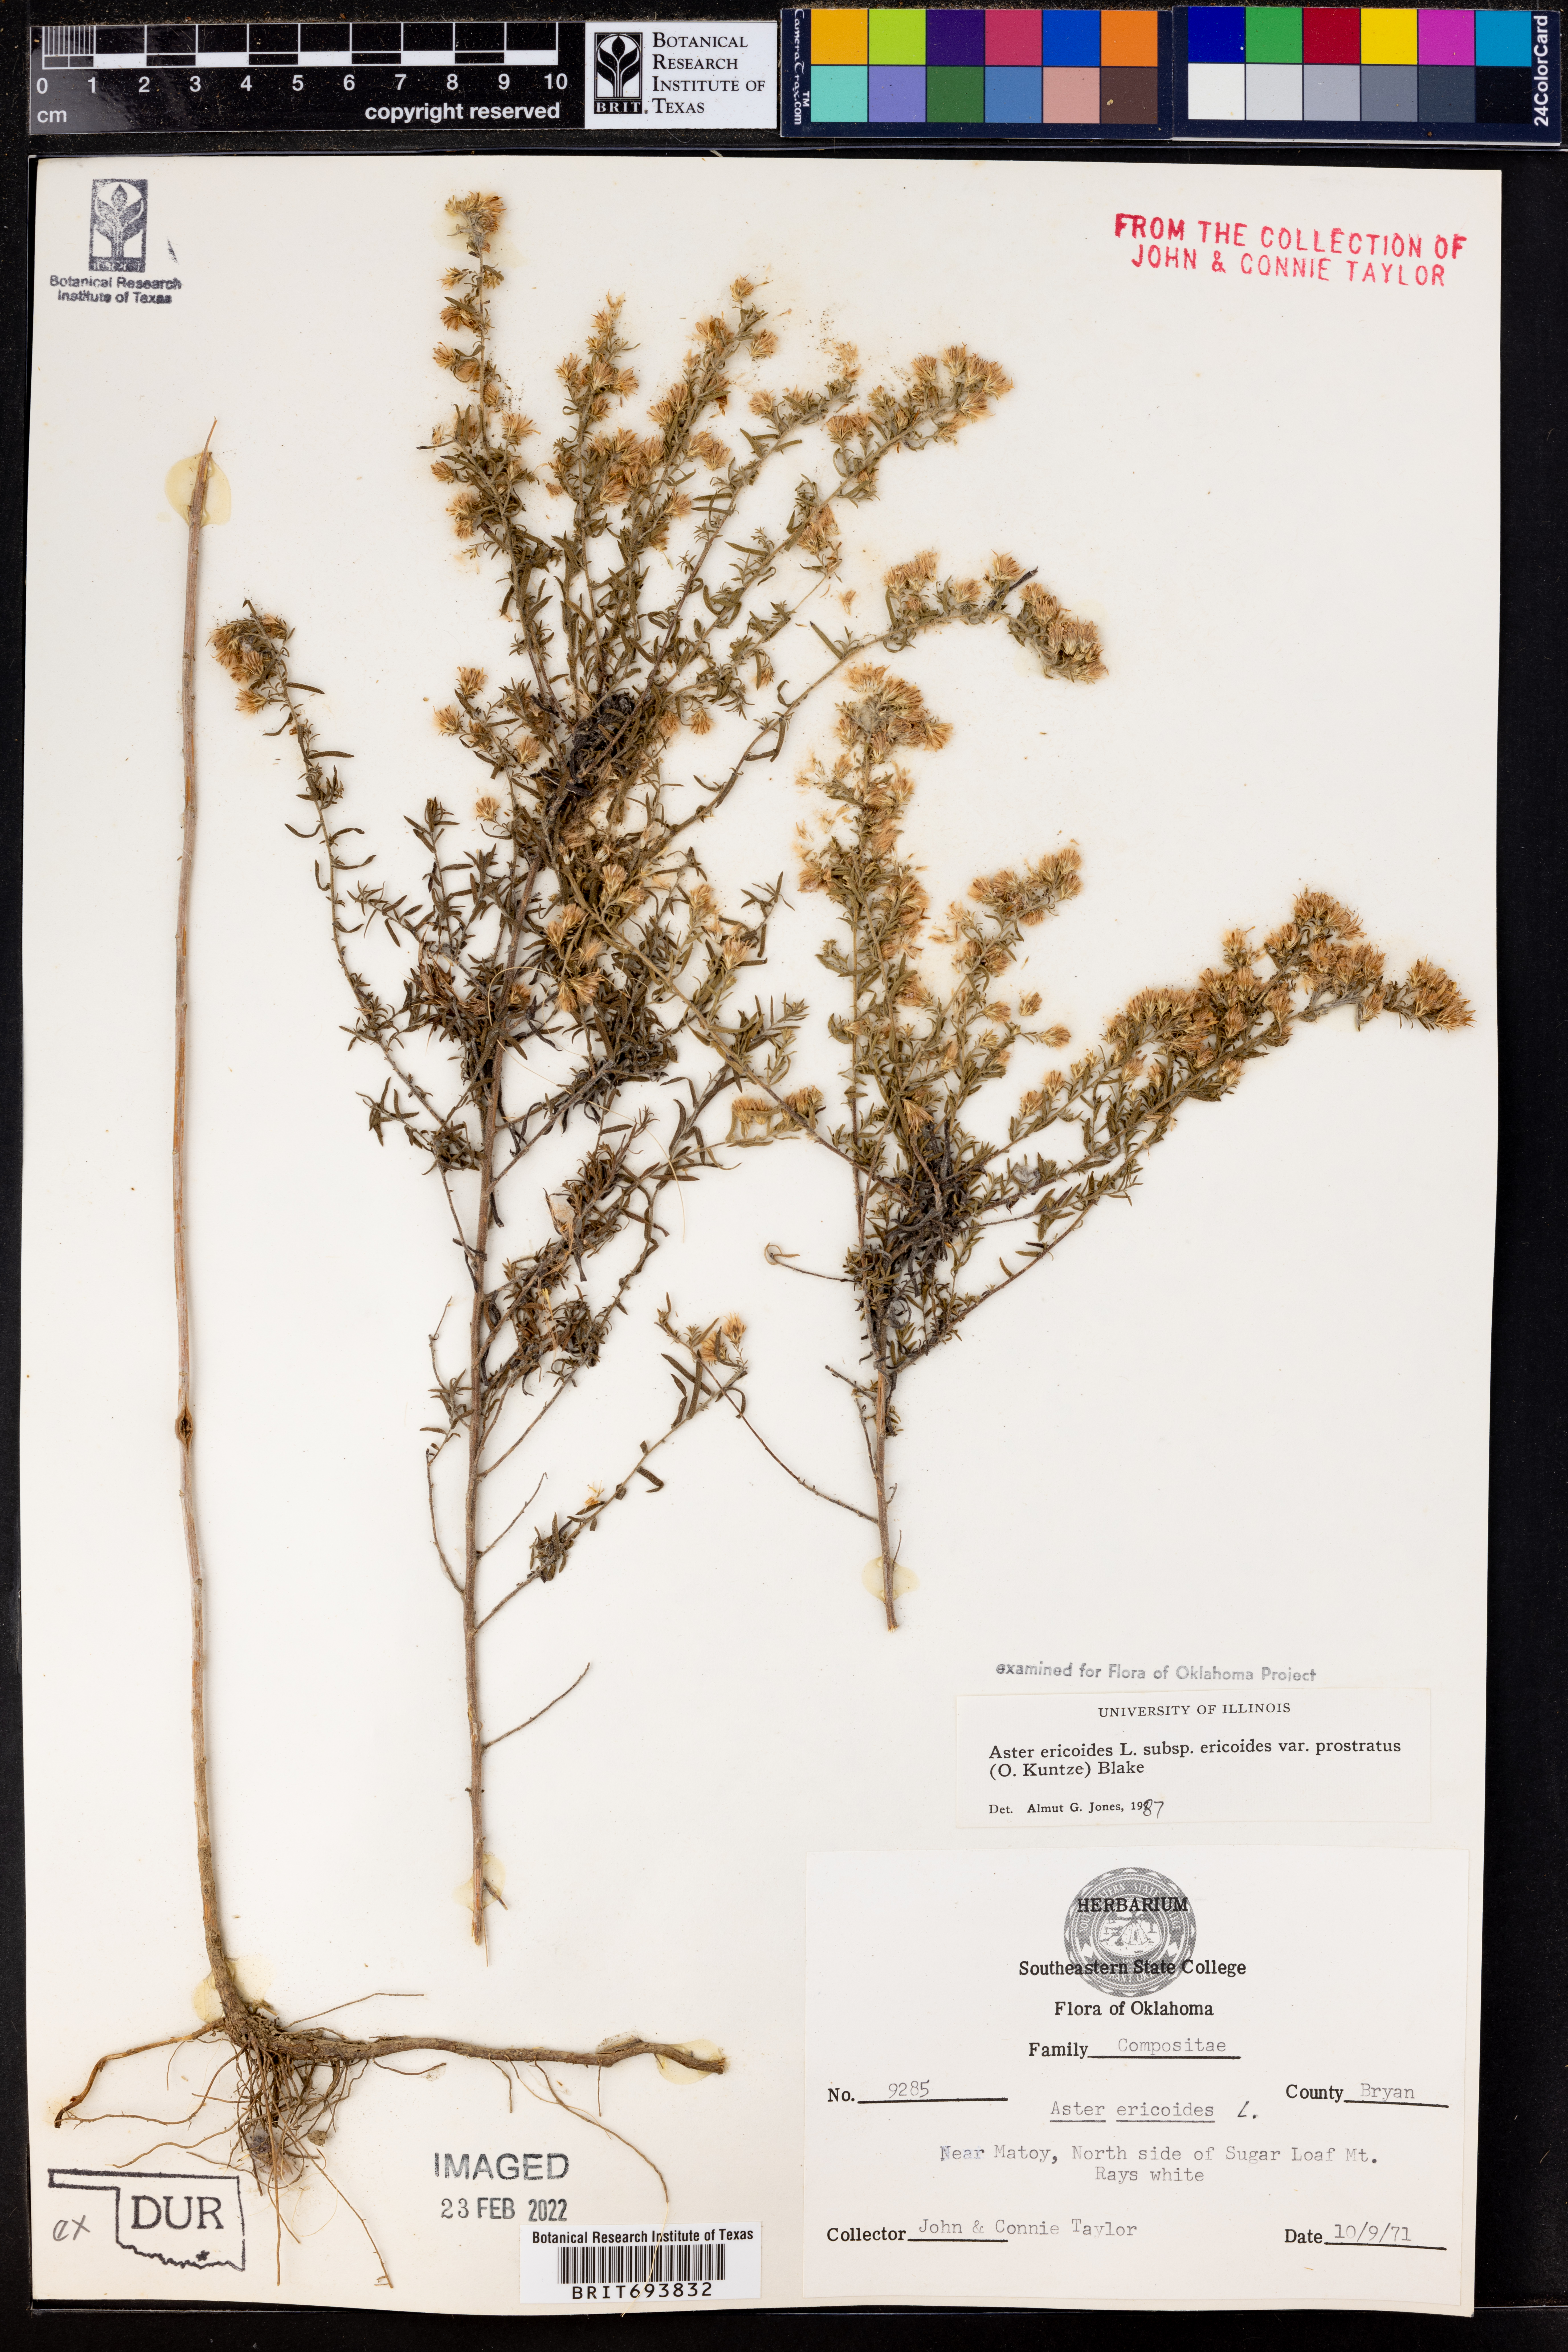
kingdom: Plantae
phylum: Tracheophyta
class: Magnoliopsida
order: Asterales
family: Asteraceae
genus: Symphyotrichum
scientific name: Symphyotrichum ericoides
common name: Heath aster
